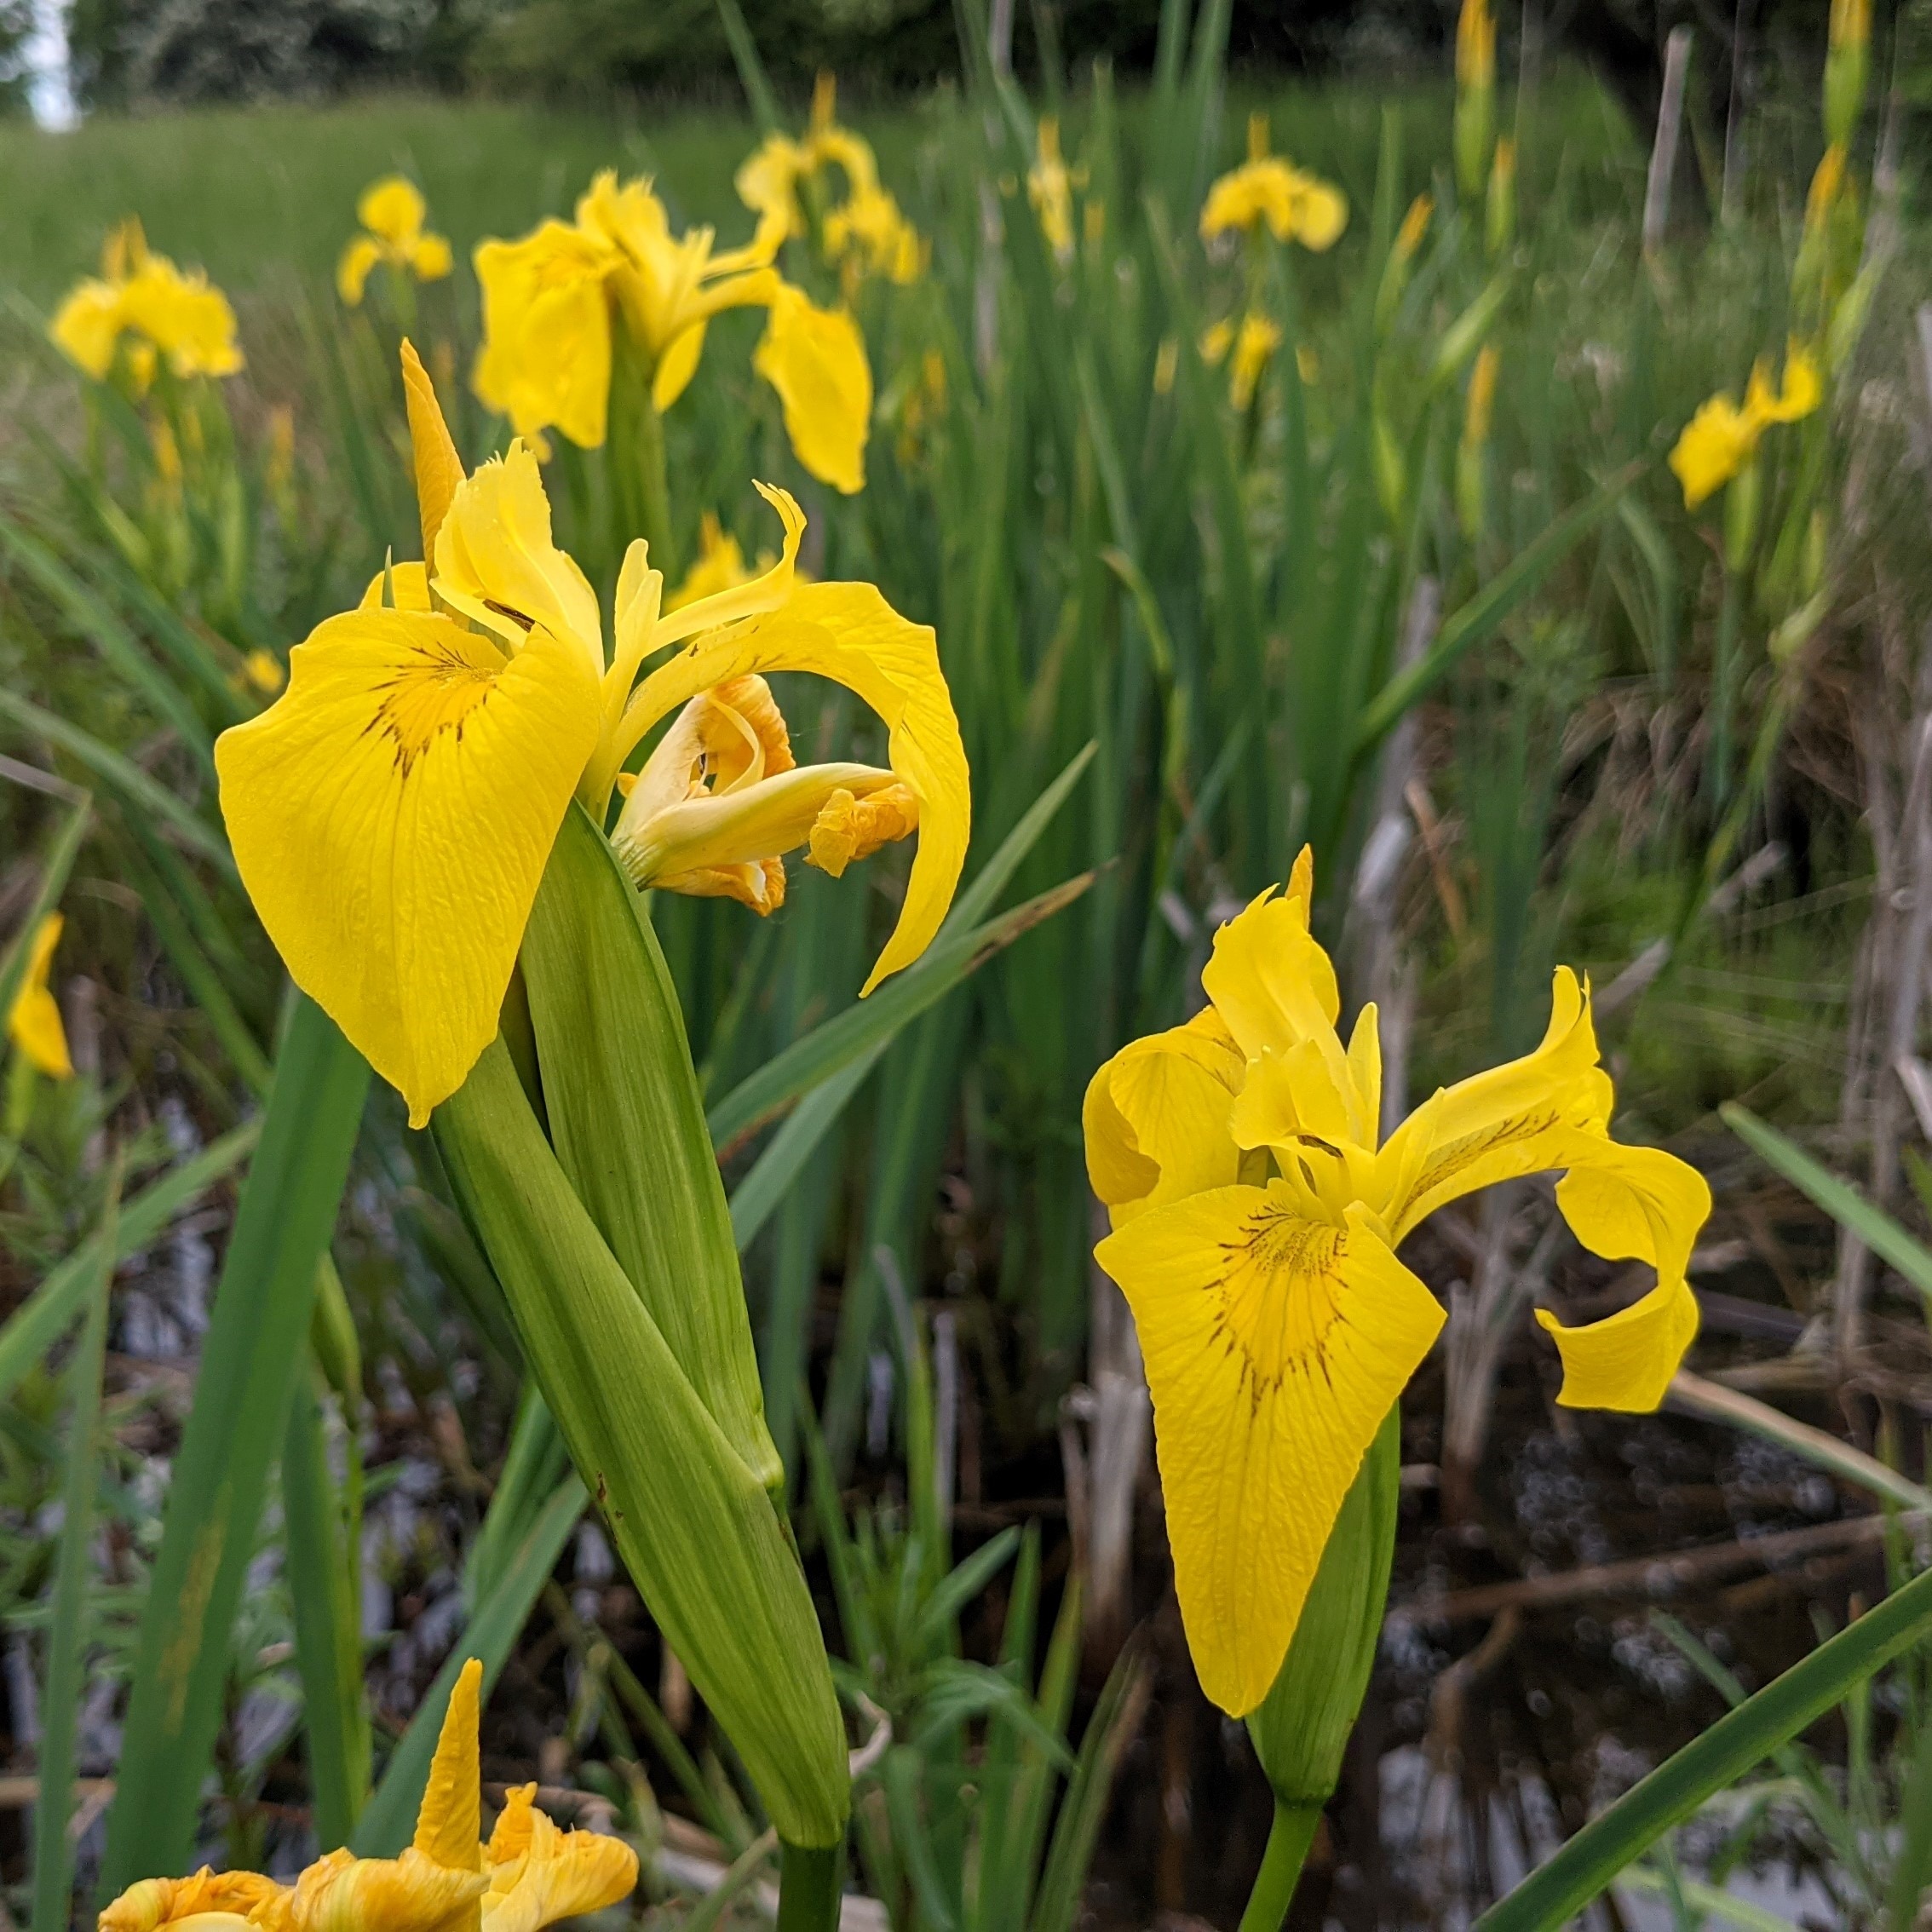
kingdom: Plantae
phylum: Tracheophyta
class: Liliopsida
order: Asparagales
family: Iridaceae
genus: Iris
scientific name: Iris pseudacorus
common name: Gul iris
